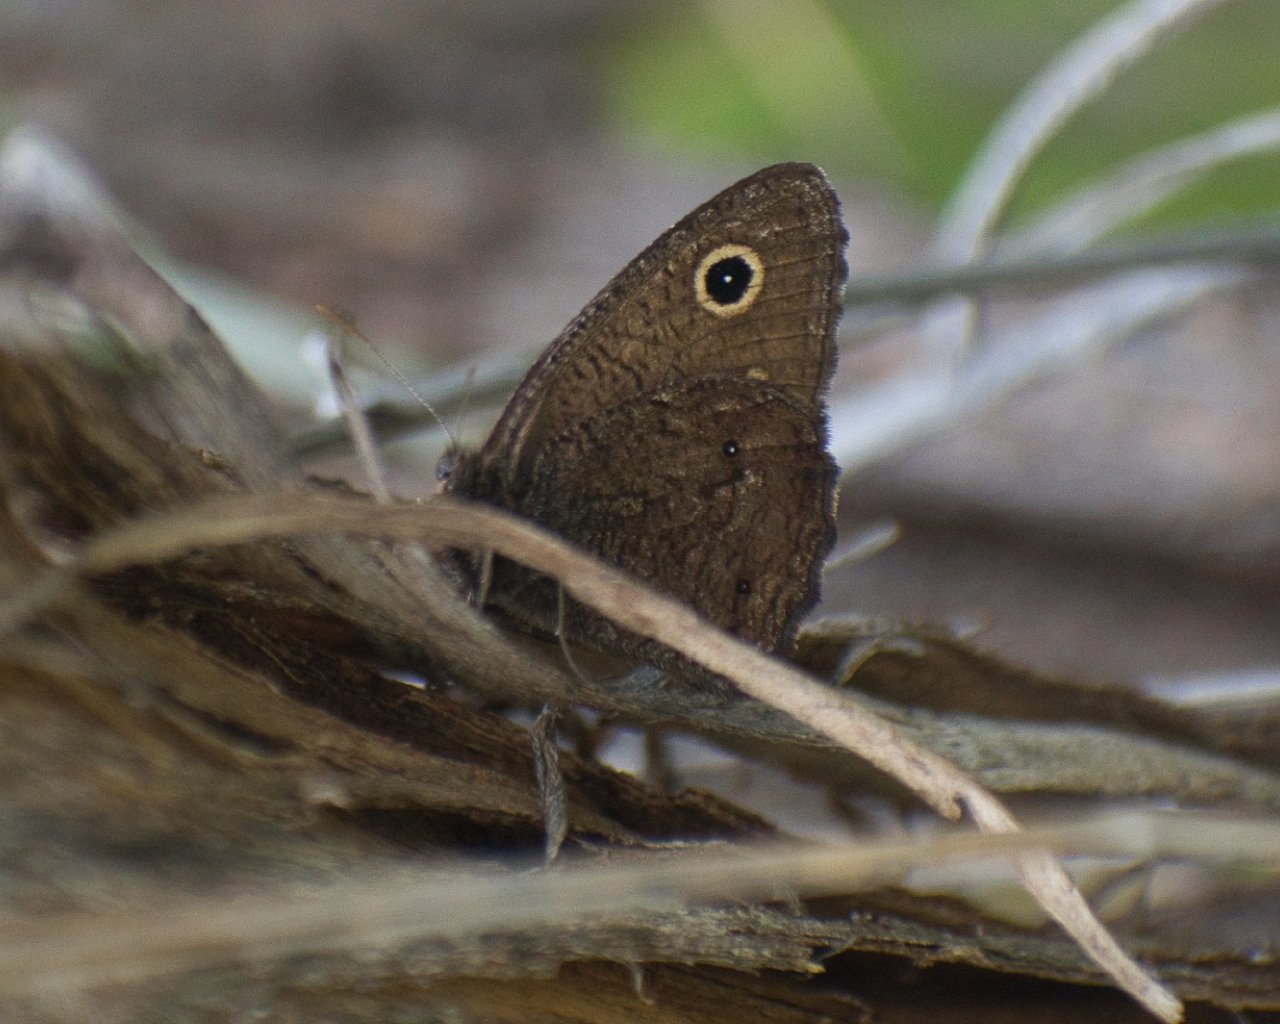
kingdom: Animalia
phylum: Arthropoda
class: Insecta
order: Lepidoptera
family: Nymphalidae
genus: Cercyonis
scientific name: Cercyonis oetus
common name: Small Wood-Nymph
